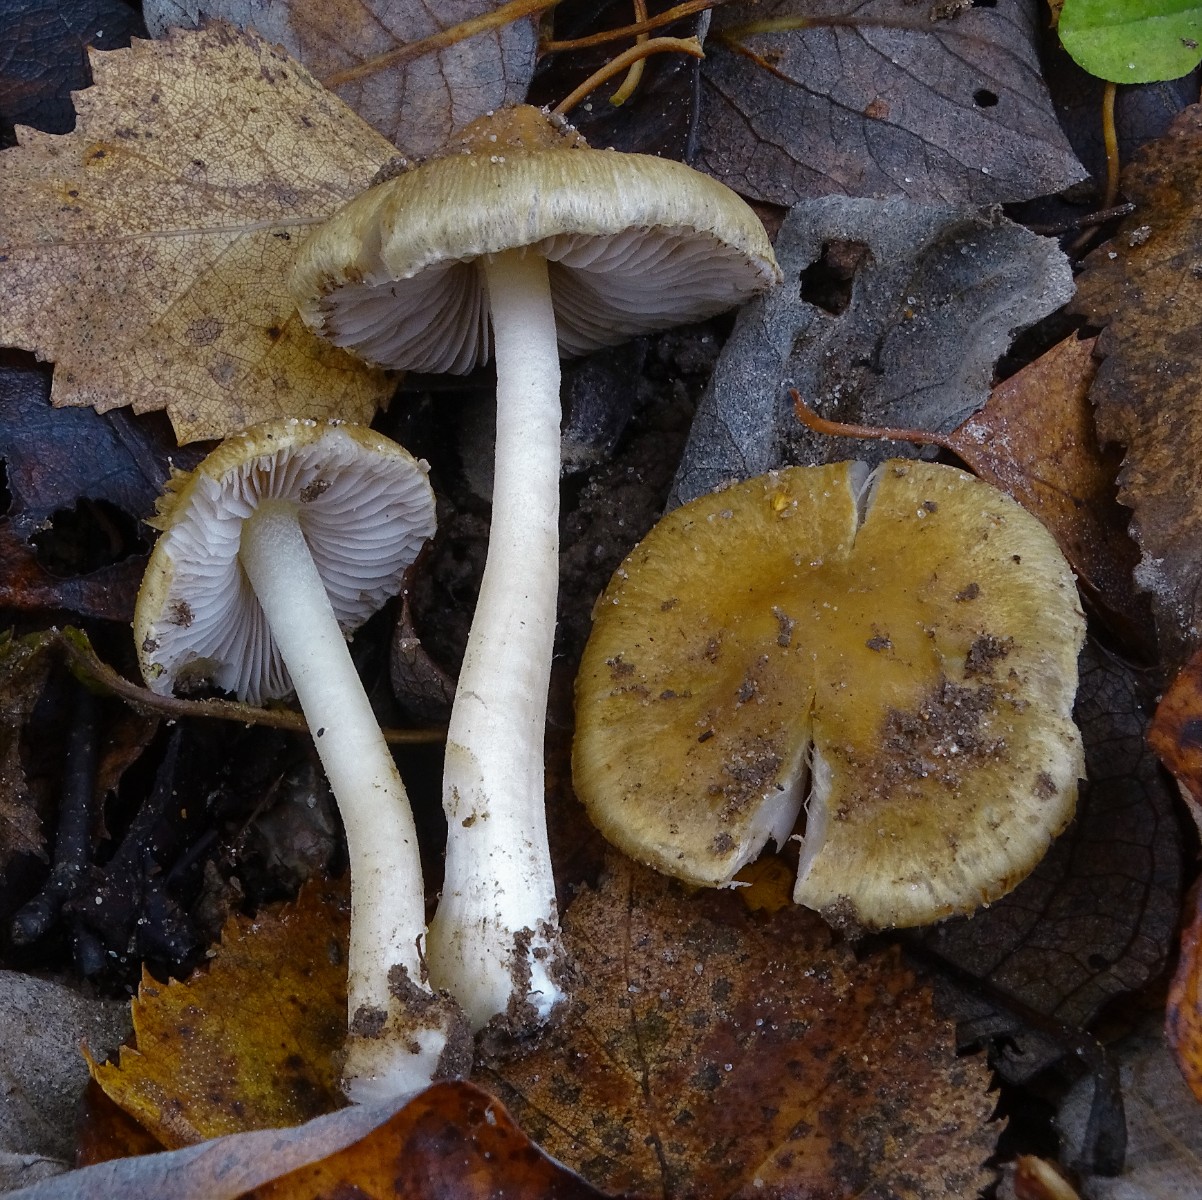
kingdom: Fungi
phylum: Basidiomycota
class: Agaricomycetes
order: Agaricales
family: Inocybaceae
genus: Inocybe
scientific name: Inocybe mixtilis
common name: randknoldet trævlhat
